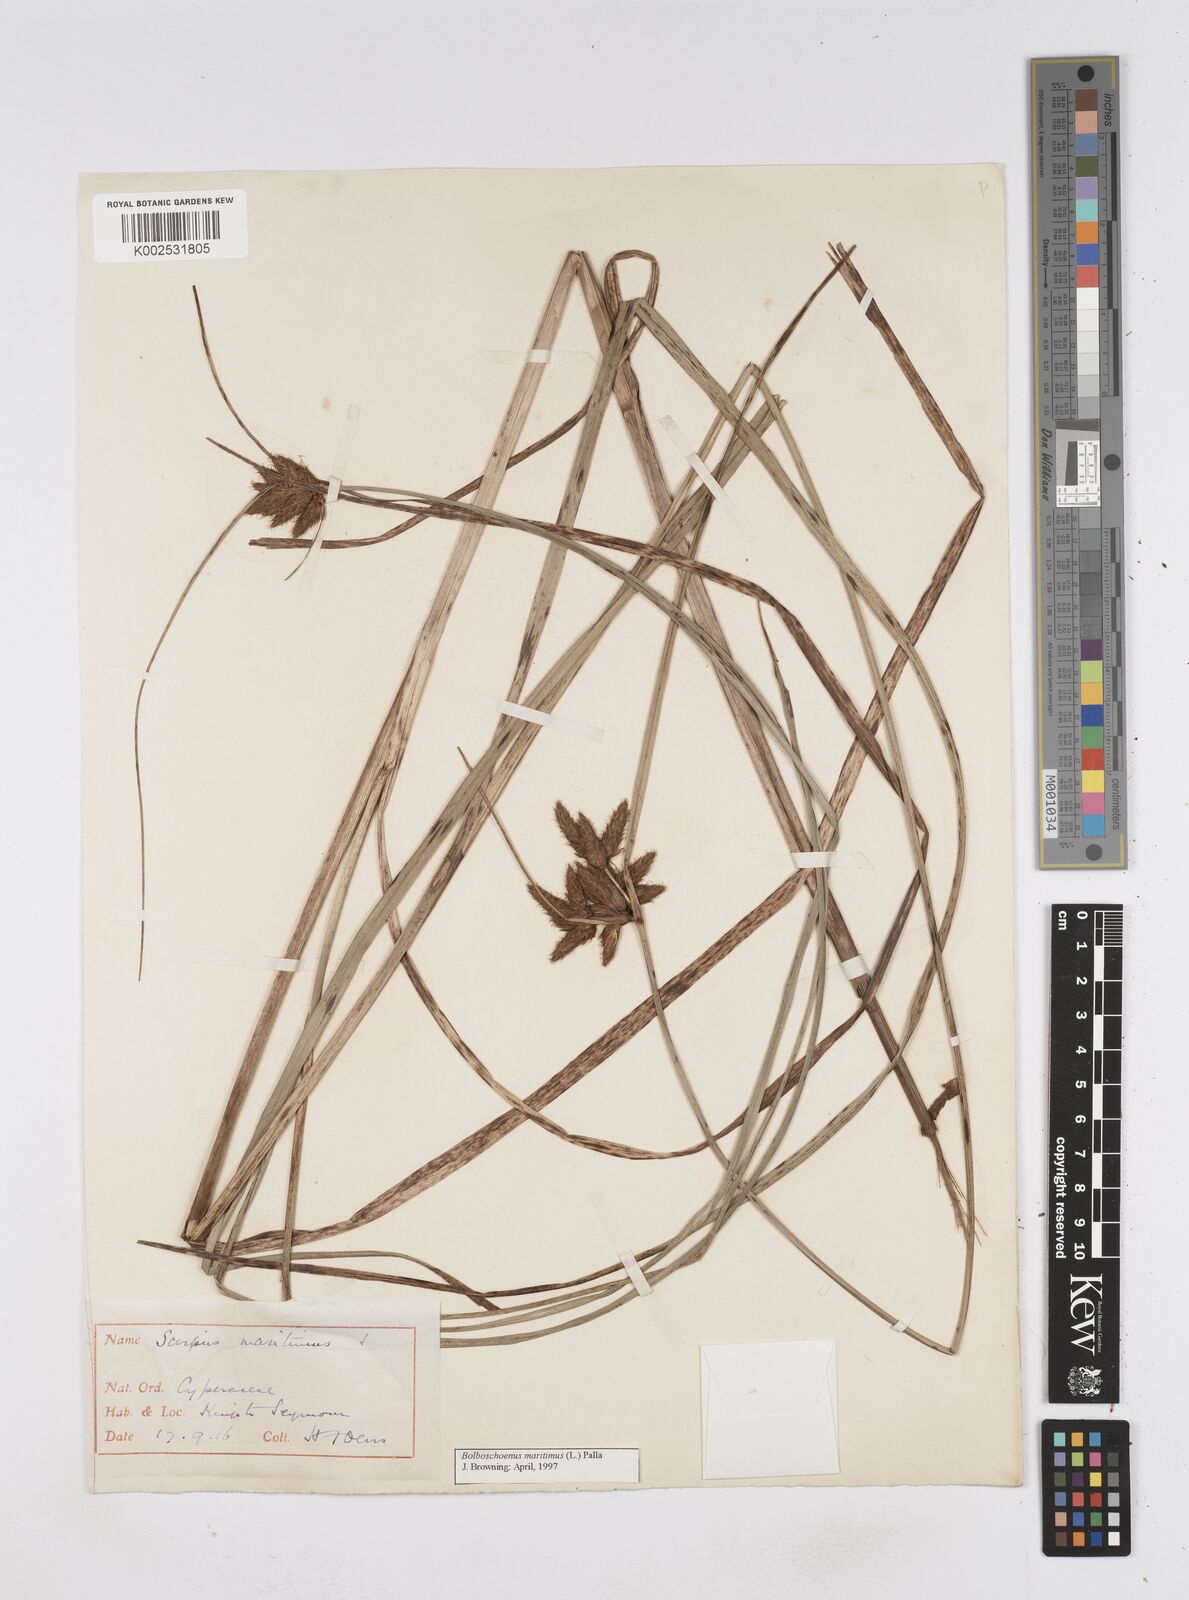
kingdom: Plantae
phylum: Tracheophyta
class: Liliopsida
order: Poales
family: Cyperaceae
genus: Bolboschoenus
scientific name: Bolboschoenus maritimus
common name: Sea club-rush
